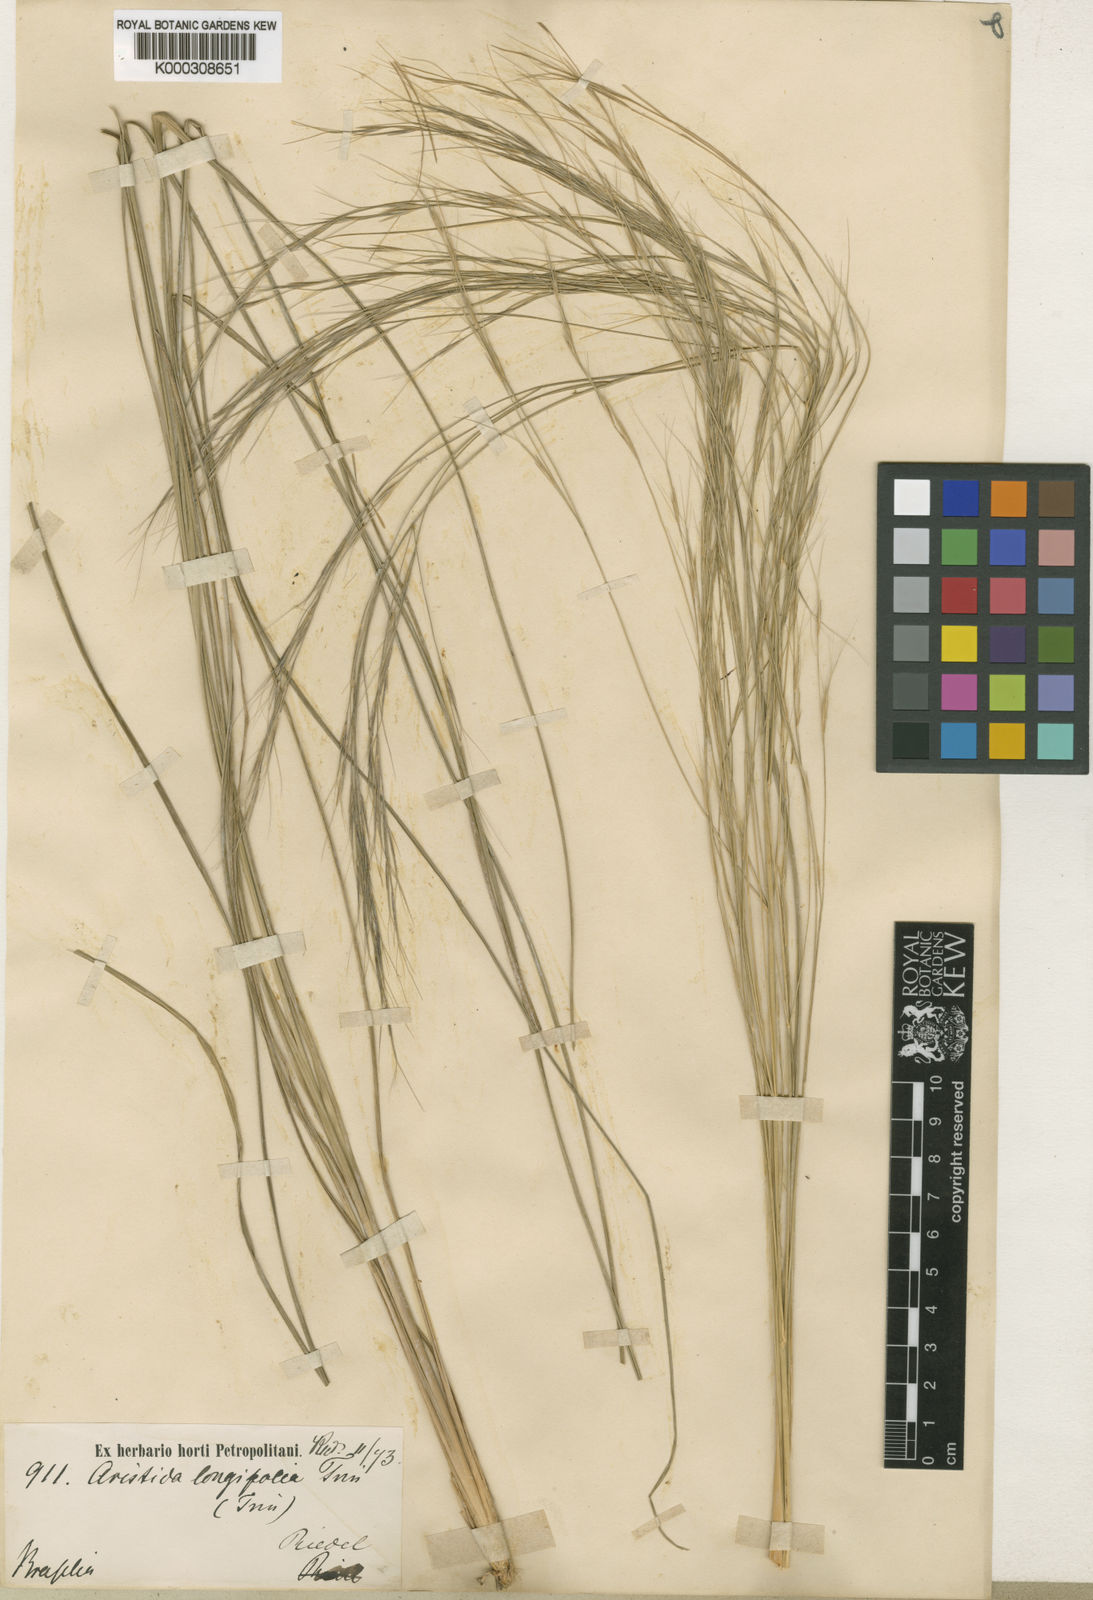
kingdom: Plantae
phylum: Tracheophyta
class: Liliopsida
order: Poales
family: Poaceae
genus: Aristida
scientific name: Aristida longifolia
